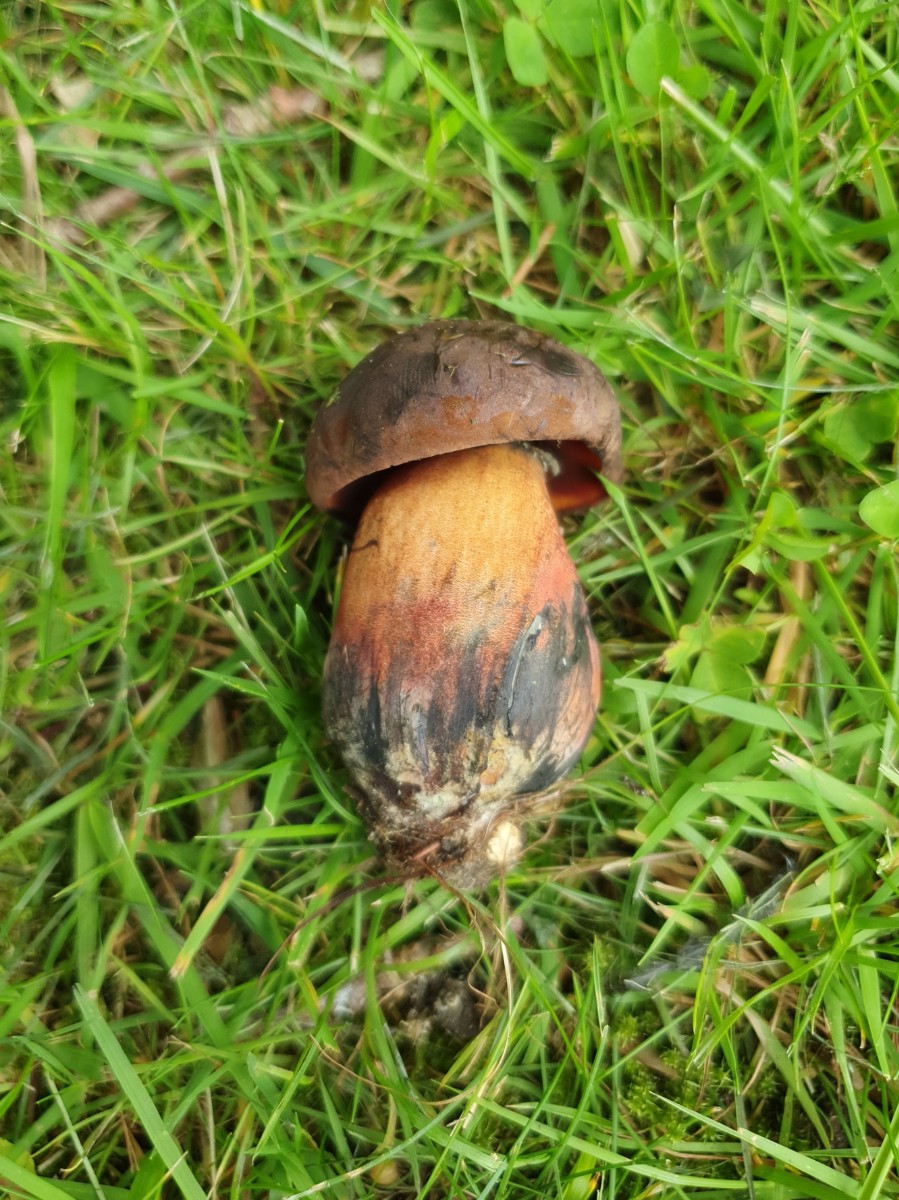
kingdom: Fungi
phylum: Basidiomycota
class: Agaricomycetes
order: Boletales
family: Boletaceae
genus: Neoboletus
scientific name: Neoboletus erythropus
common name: punktstokket indigorørhat
